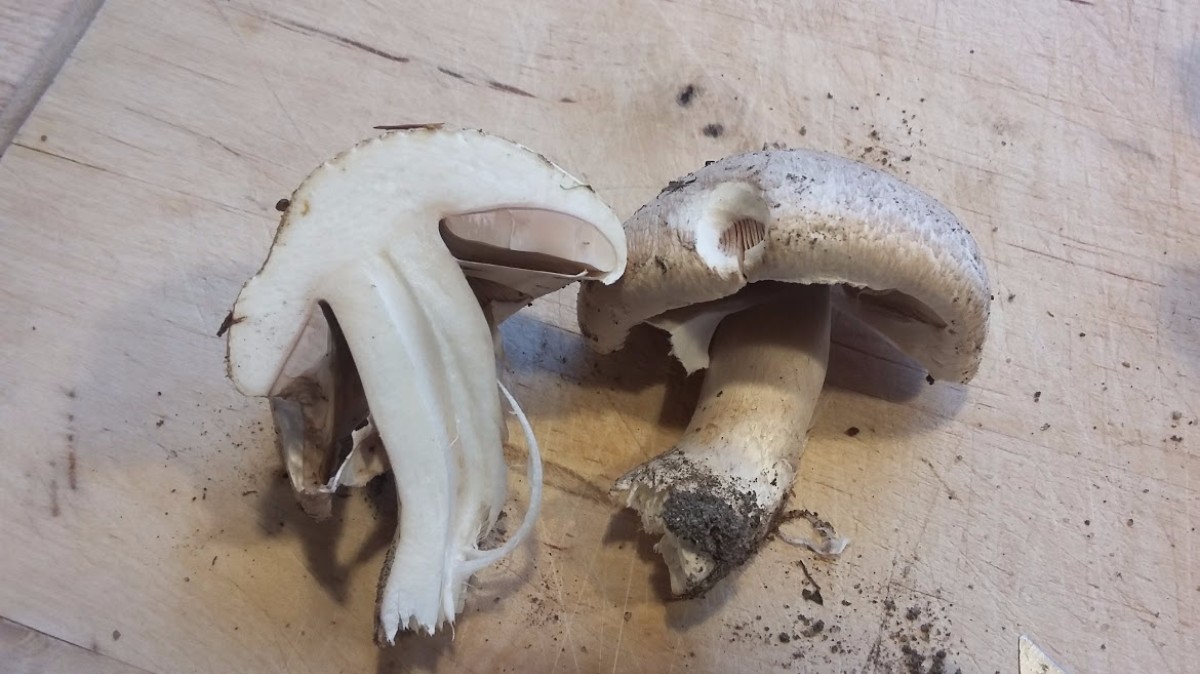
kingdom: Fungi
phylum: Basidiomycota
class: Agaricomycetes
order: Agaricales
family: Agaricaceae
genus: Agaricus
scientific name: Agaricus
